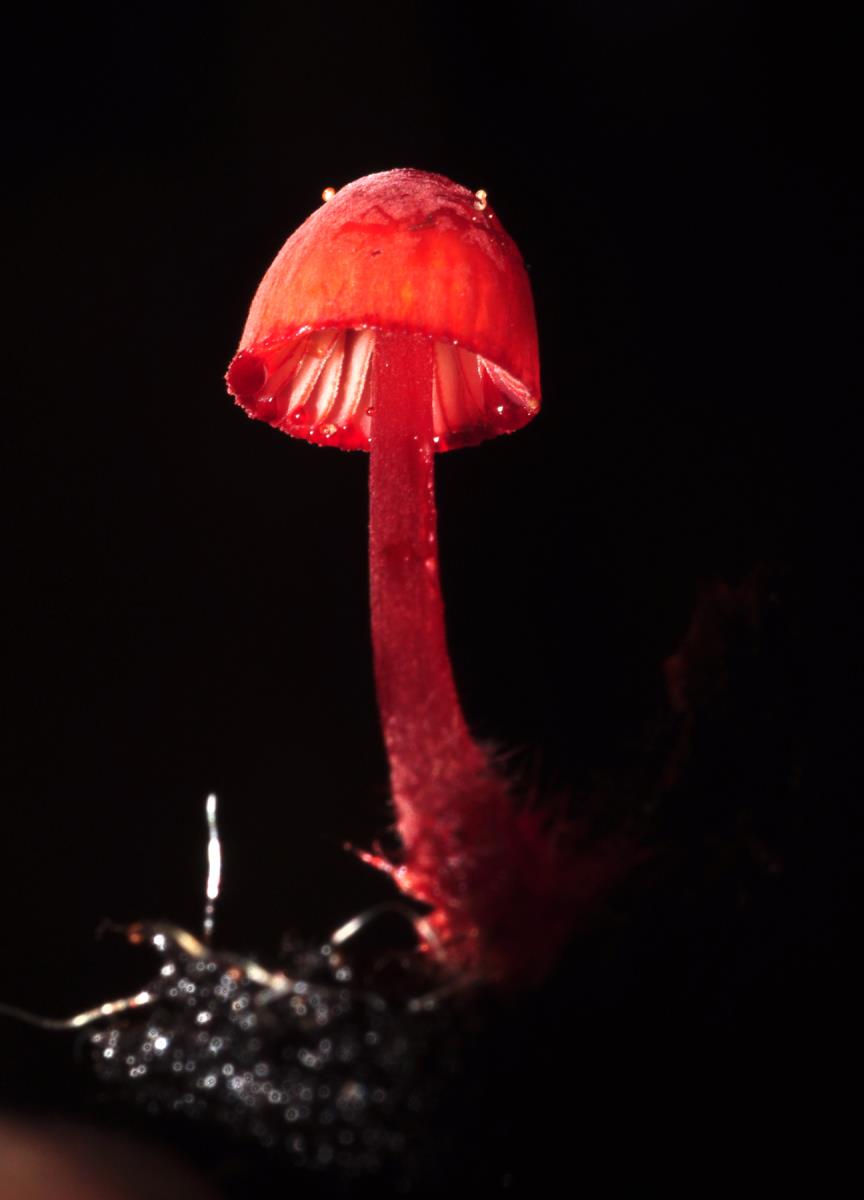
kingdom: Fungi
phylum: Basidiomycota
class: Agaricomycetes
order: Agaricales
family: Mycenaceae
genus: Mycena
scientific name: Mycena ura
